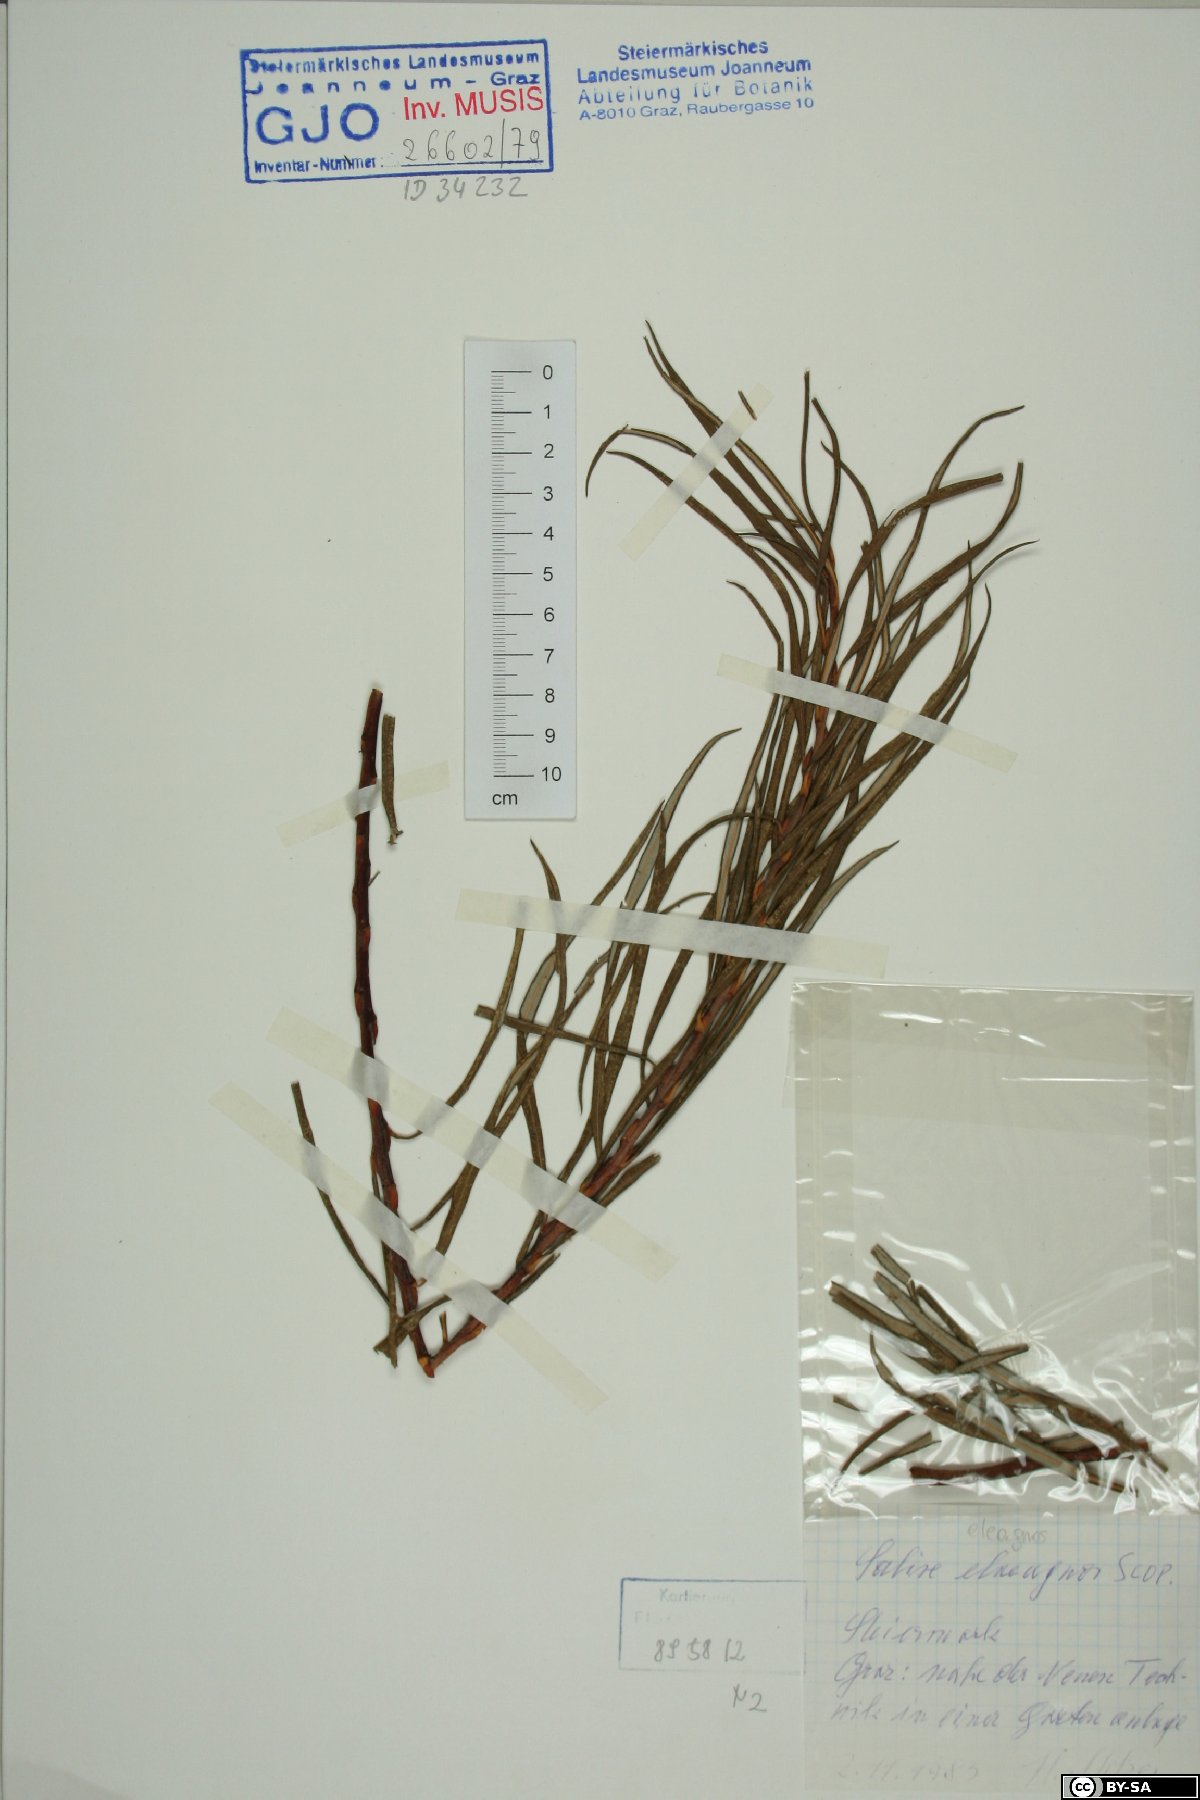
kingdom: Plantae
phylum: Tracheophyta
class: Magnoliopsida
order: Malpighiales
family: Salicaceae
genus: Salix
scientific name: Salix eleagnos
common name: Elaeagnus willow
